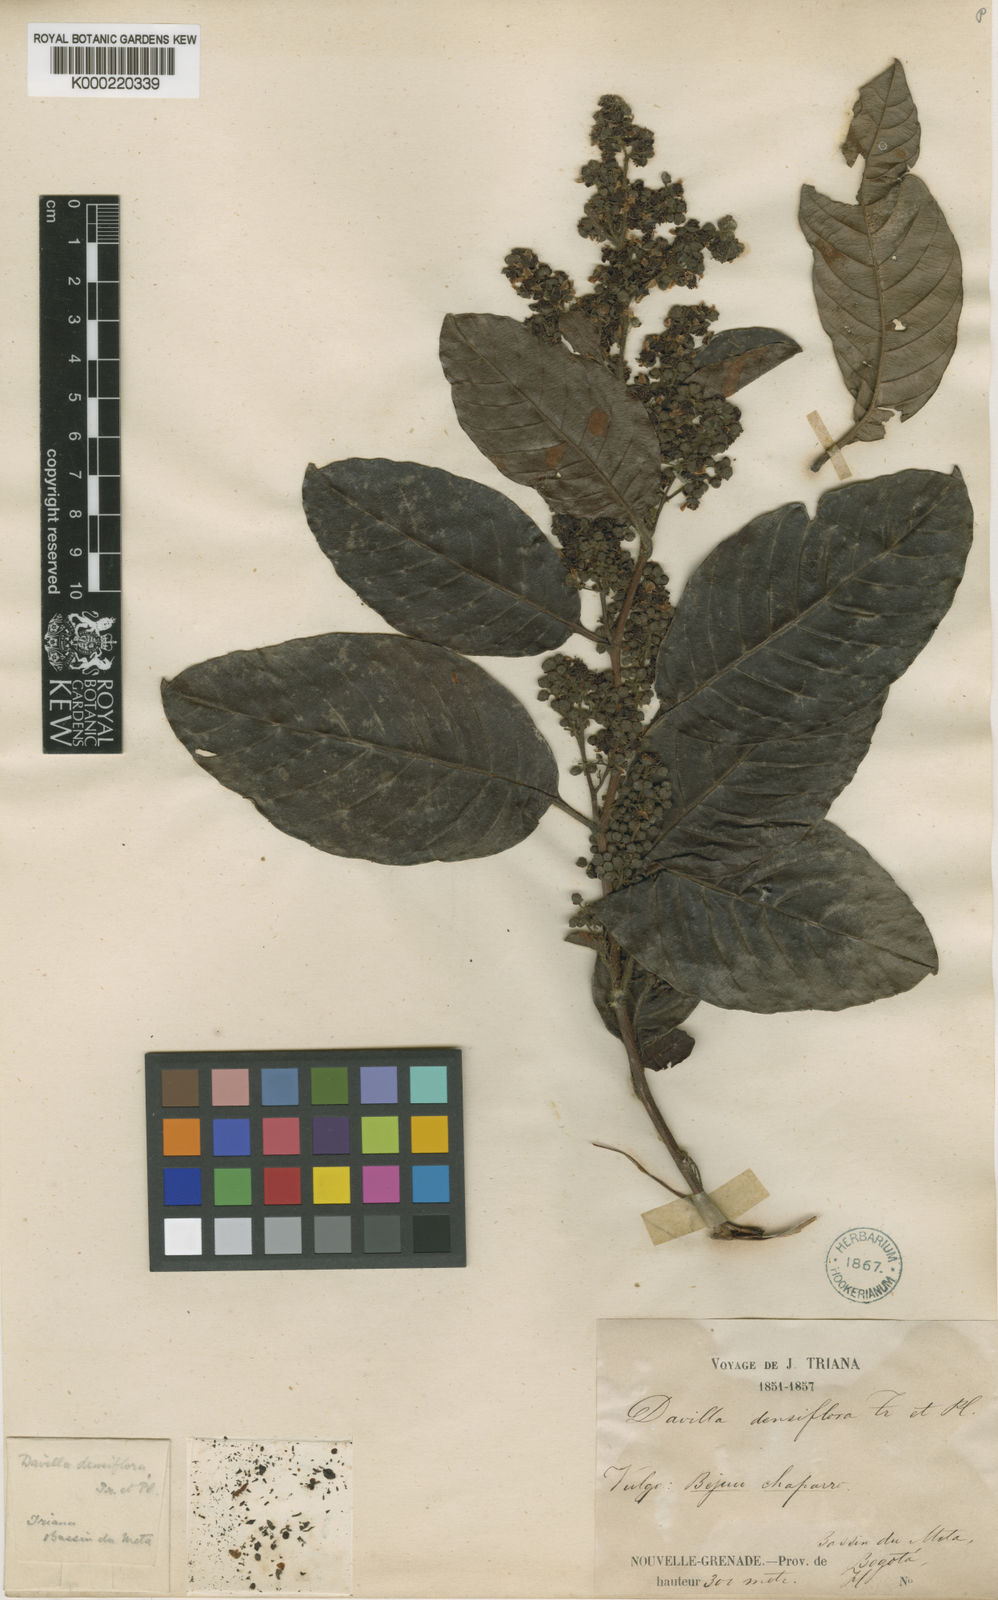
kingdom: Plantae
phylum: Tracheophyta
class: Magnoliopsida
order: Dilleniales
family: Dilleniaceae
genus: Davilla
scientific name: Davilla nitida
